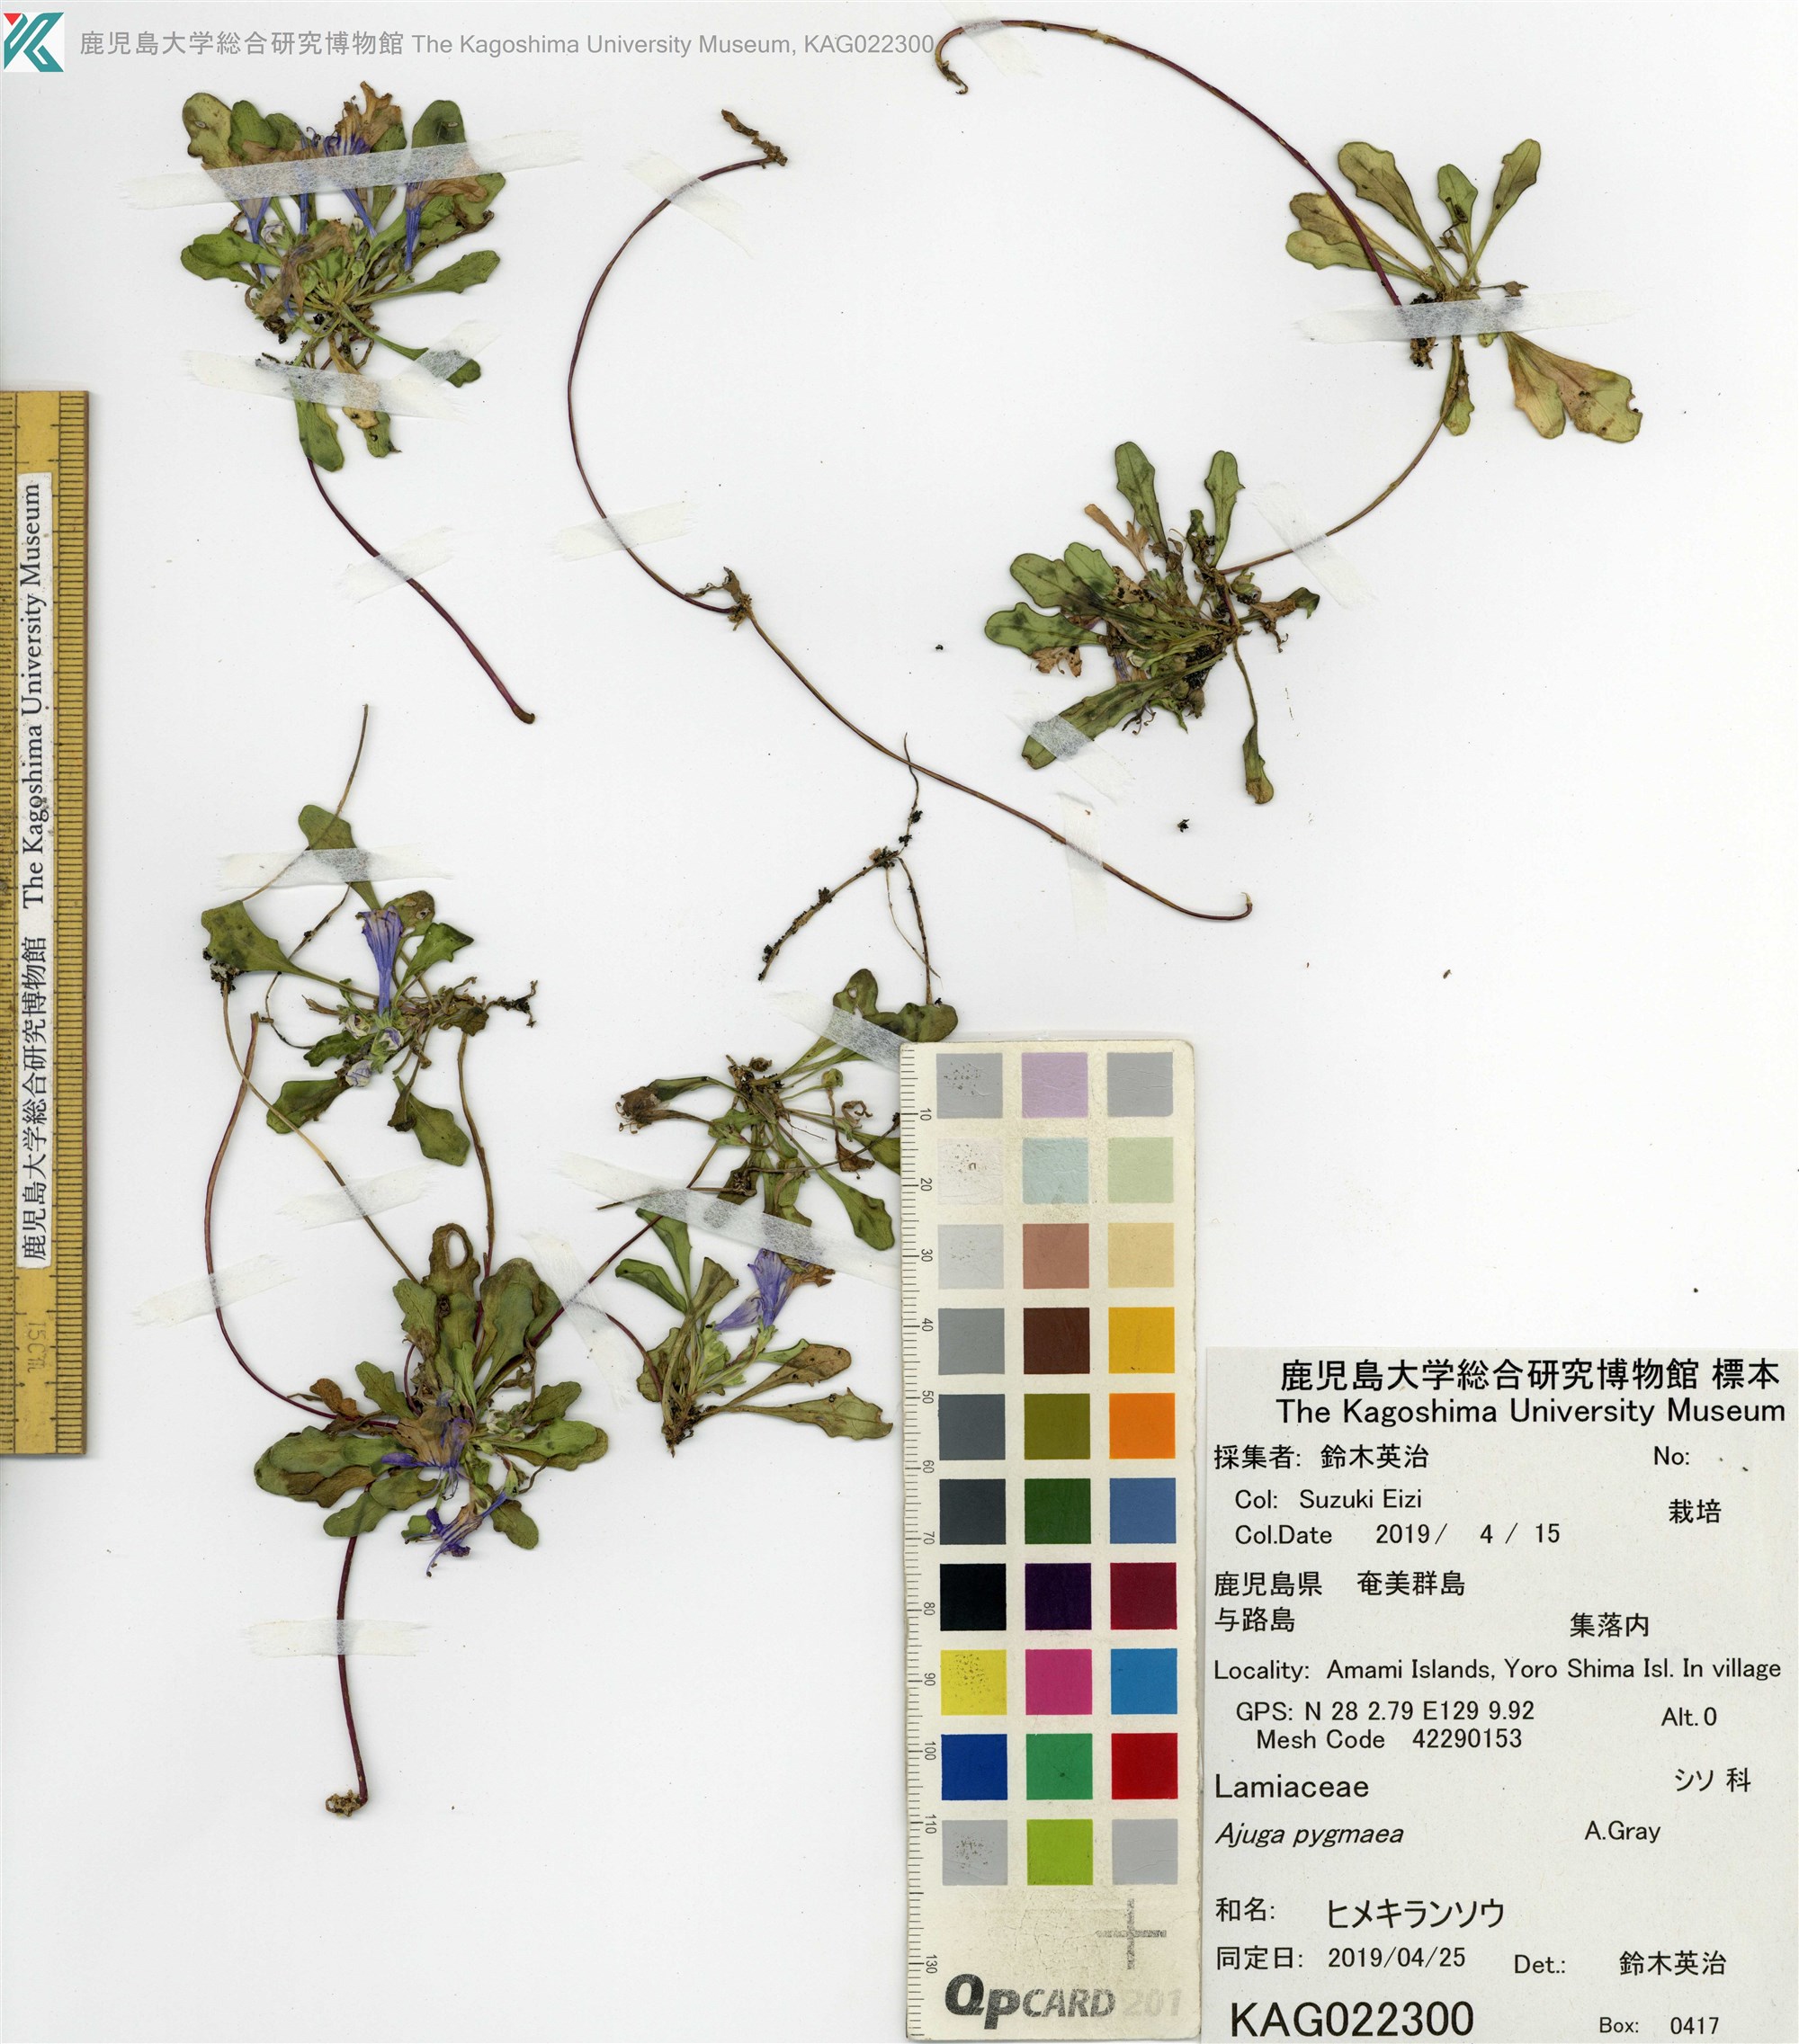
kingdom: Plantae
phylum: Tracheophyta
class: Magnoliopsida
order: Lamiales
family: Lamiaceae
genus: Ajuga
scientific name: Ajuga pygmaea
